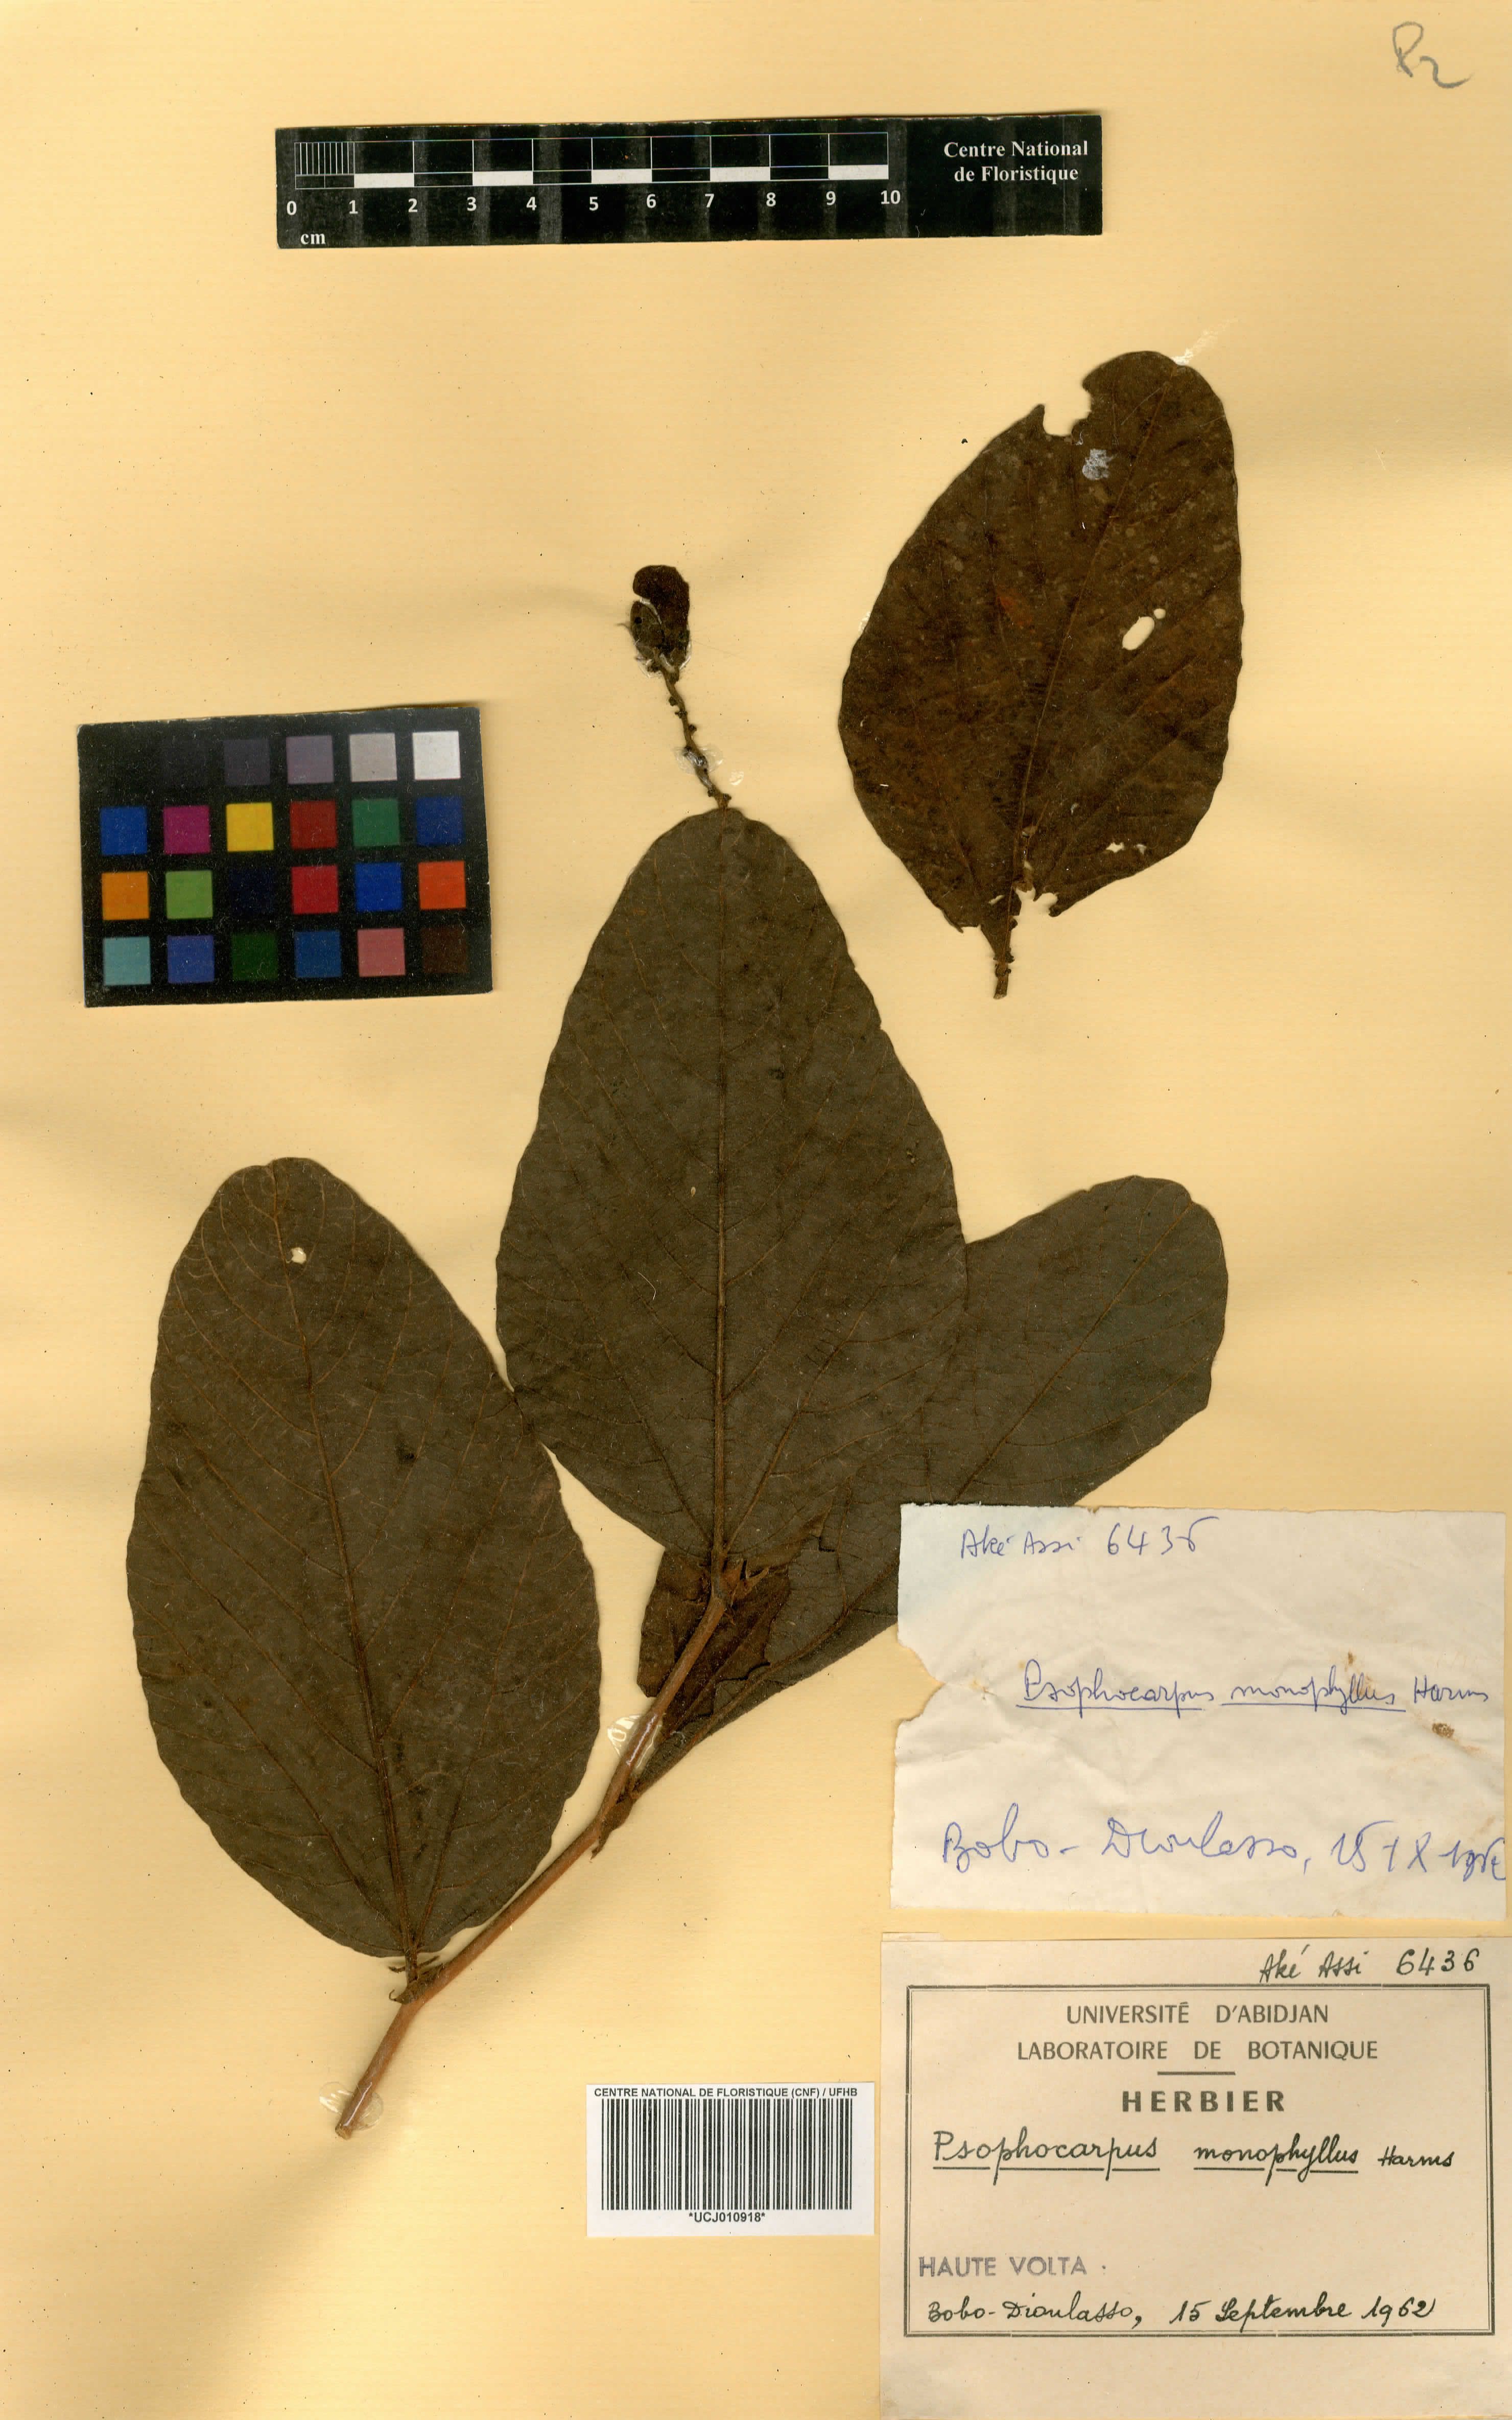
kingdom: Plantae
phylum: Tracheophyta
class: Magnoliopsida
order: Fabales
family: Fabaceae
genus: Psophocarpus
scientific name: Psophocarpus monophyllus
